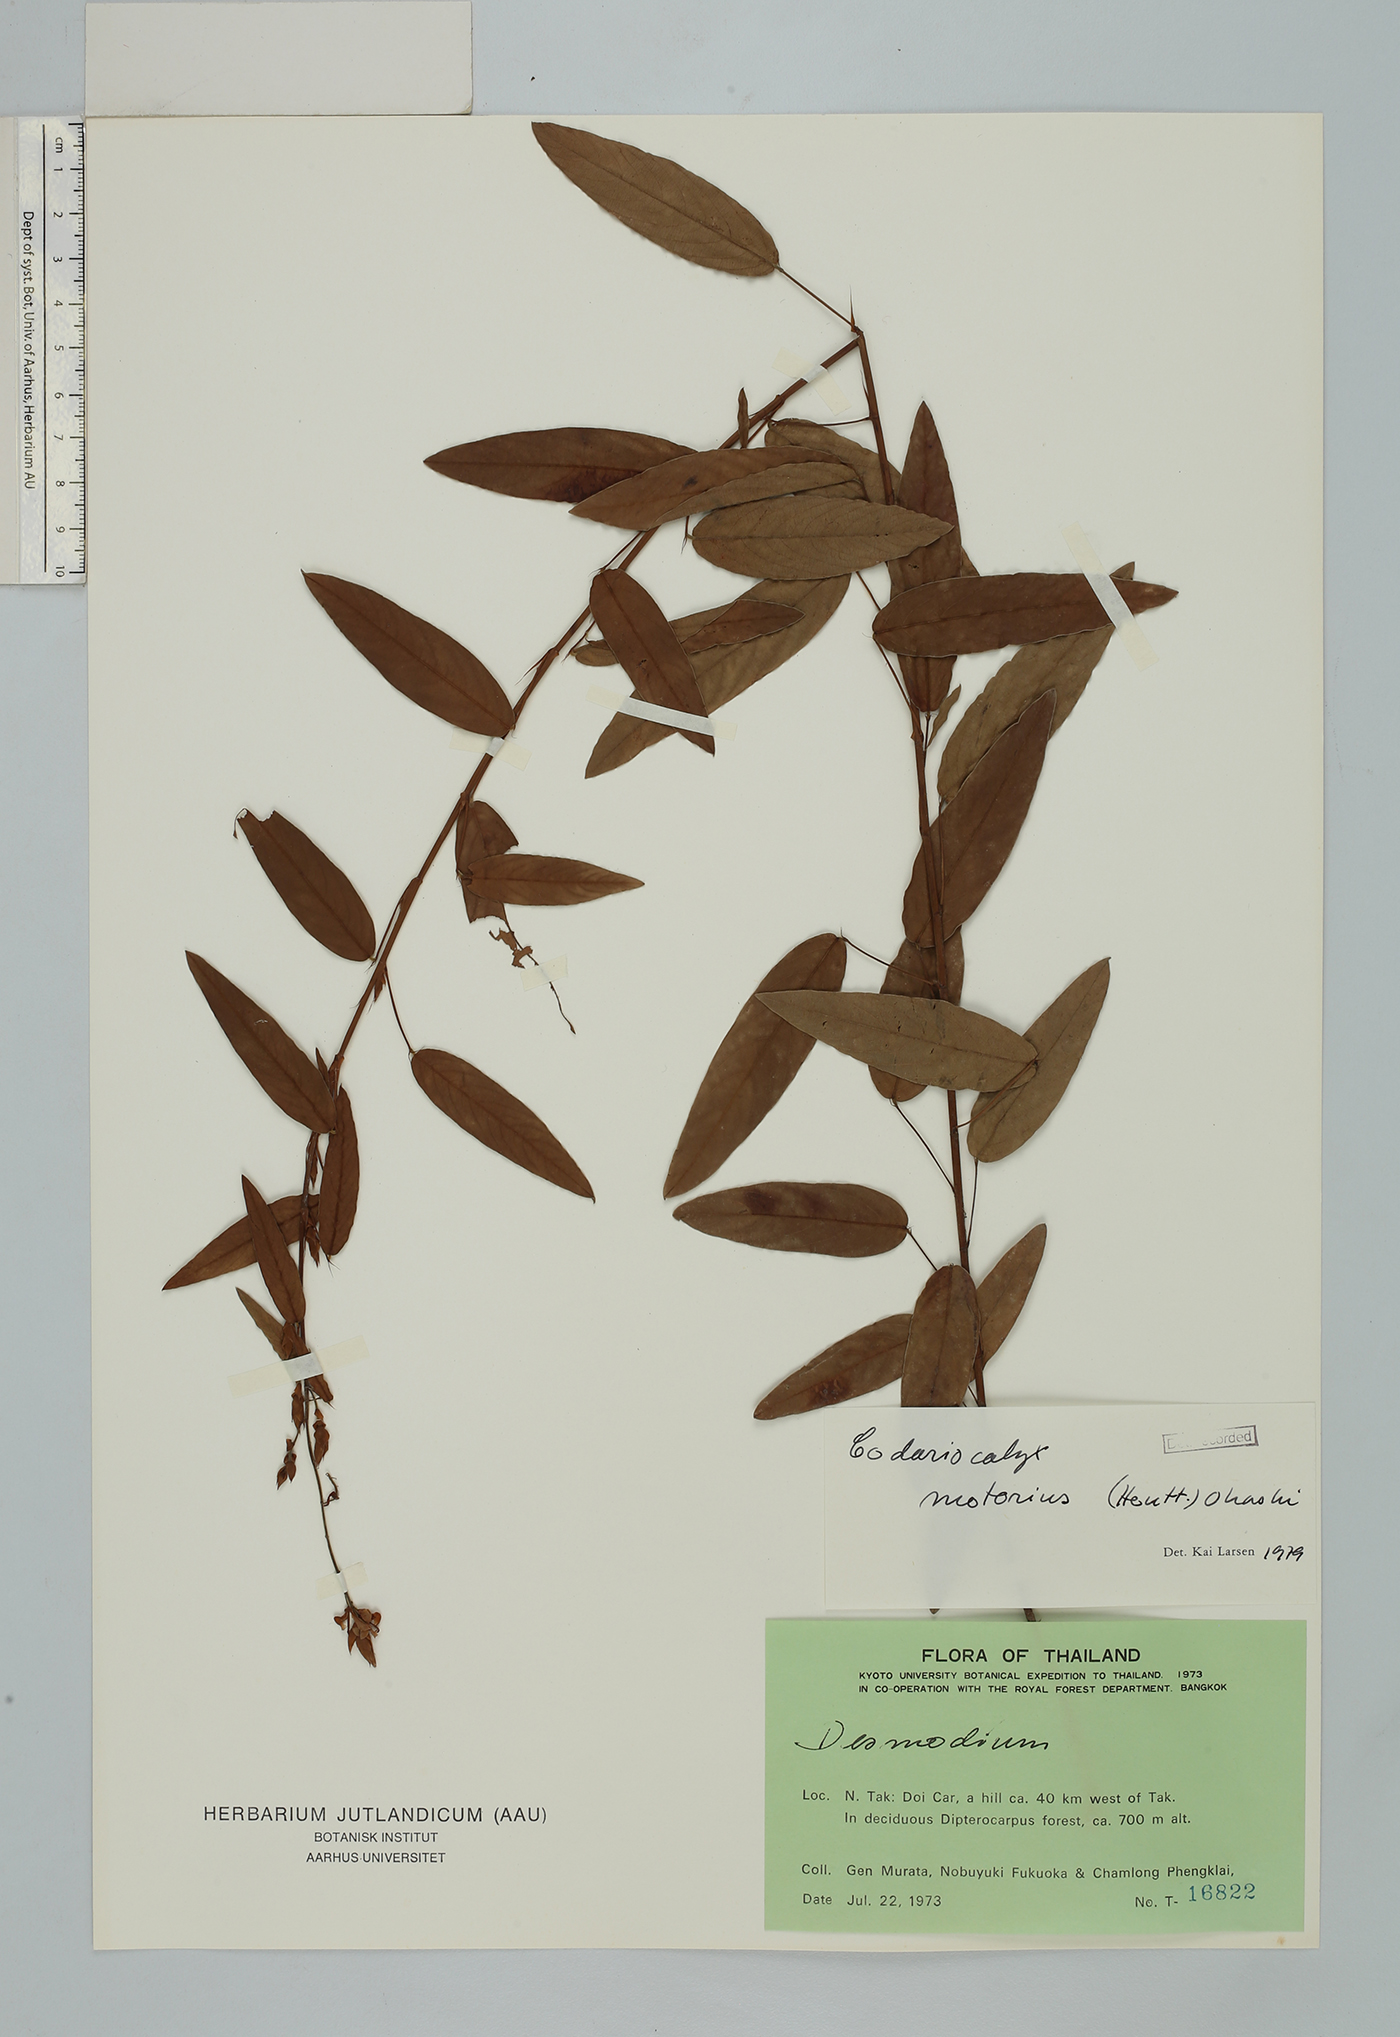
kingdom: Plantae
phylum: Tracheophyta
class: Magnoliopsida
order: Fabales
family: Fabaceae
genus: Codariocalyx
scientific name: Codariocalyx motorius
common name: Telegraph-plant
